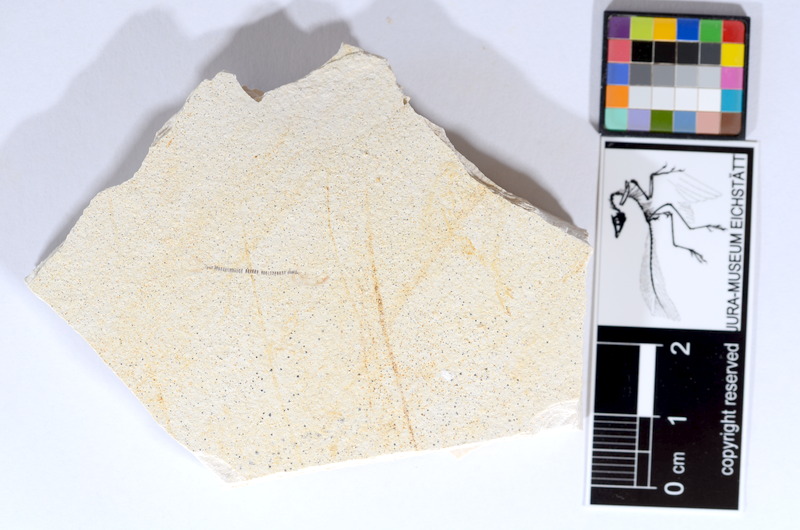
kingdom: Animalia
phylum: Chordata
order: Salmoniformes
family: Orthogonikleithridae
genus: Orthogonikleithrus
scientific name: Orthogonikleithrus hoelli
